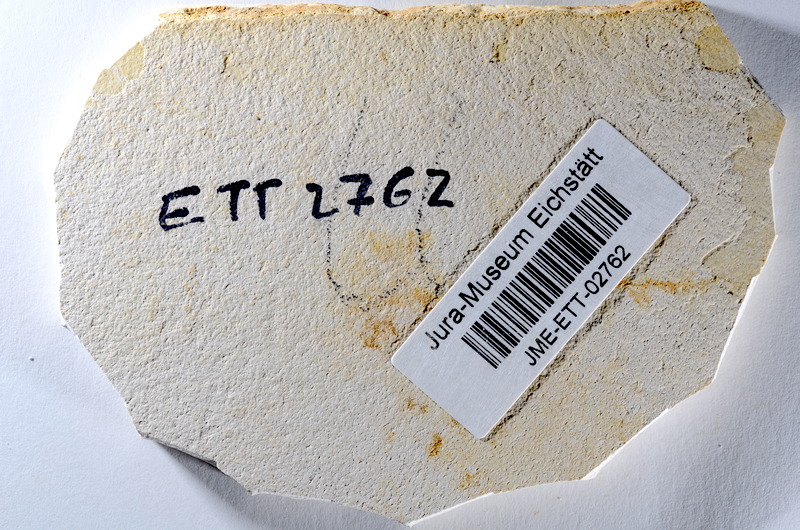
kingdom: Animalia
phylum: Chordata
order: Salmoniformes
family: Orthogonikleithridae
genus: Orthogonikleithrus
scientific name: Orthogonikleithrus hoelli
